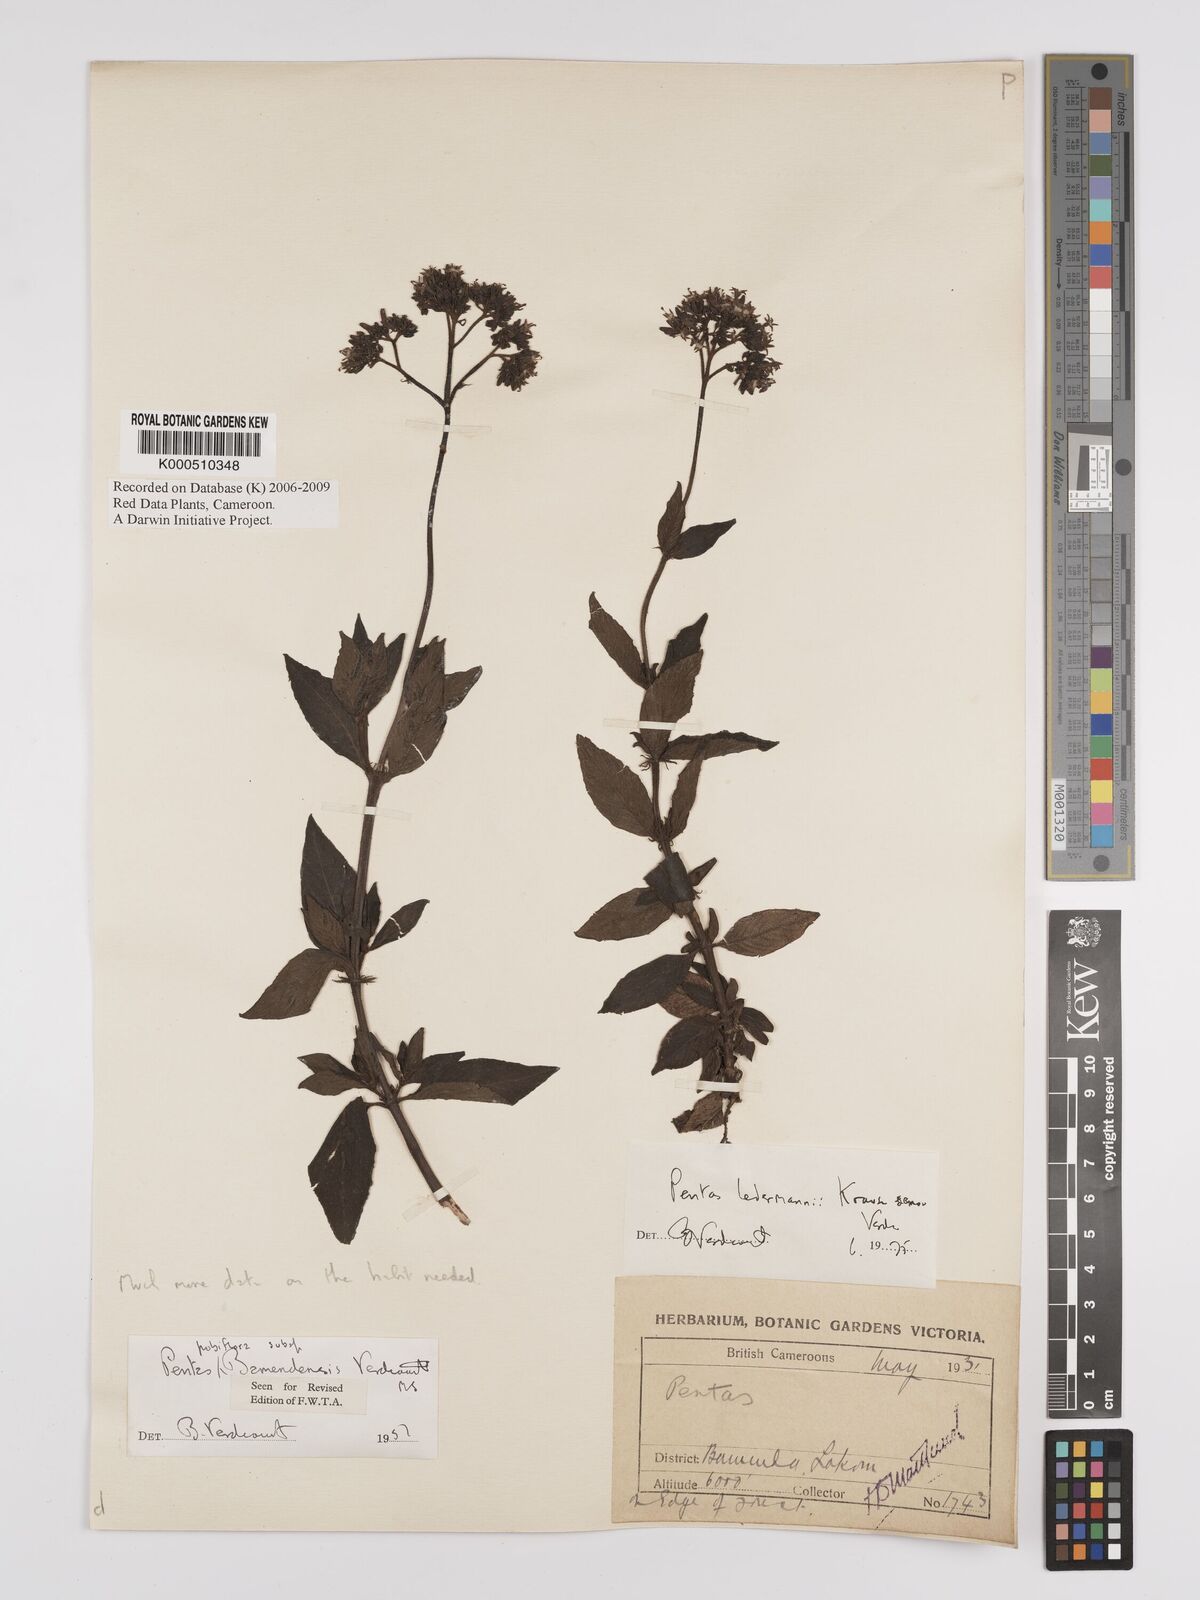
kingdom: Plantae
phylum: Tracheophyta
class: Magnoliopsida
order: Gentianales
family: Rubiaceae
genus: Phyllopentas
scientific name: Phyllopentas ledermannii
